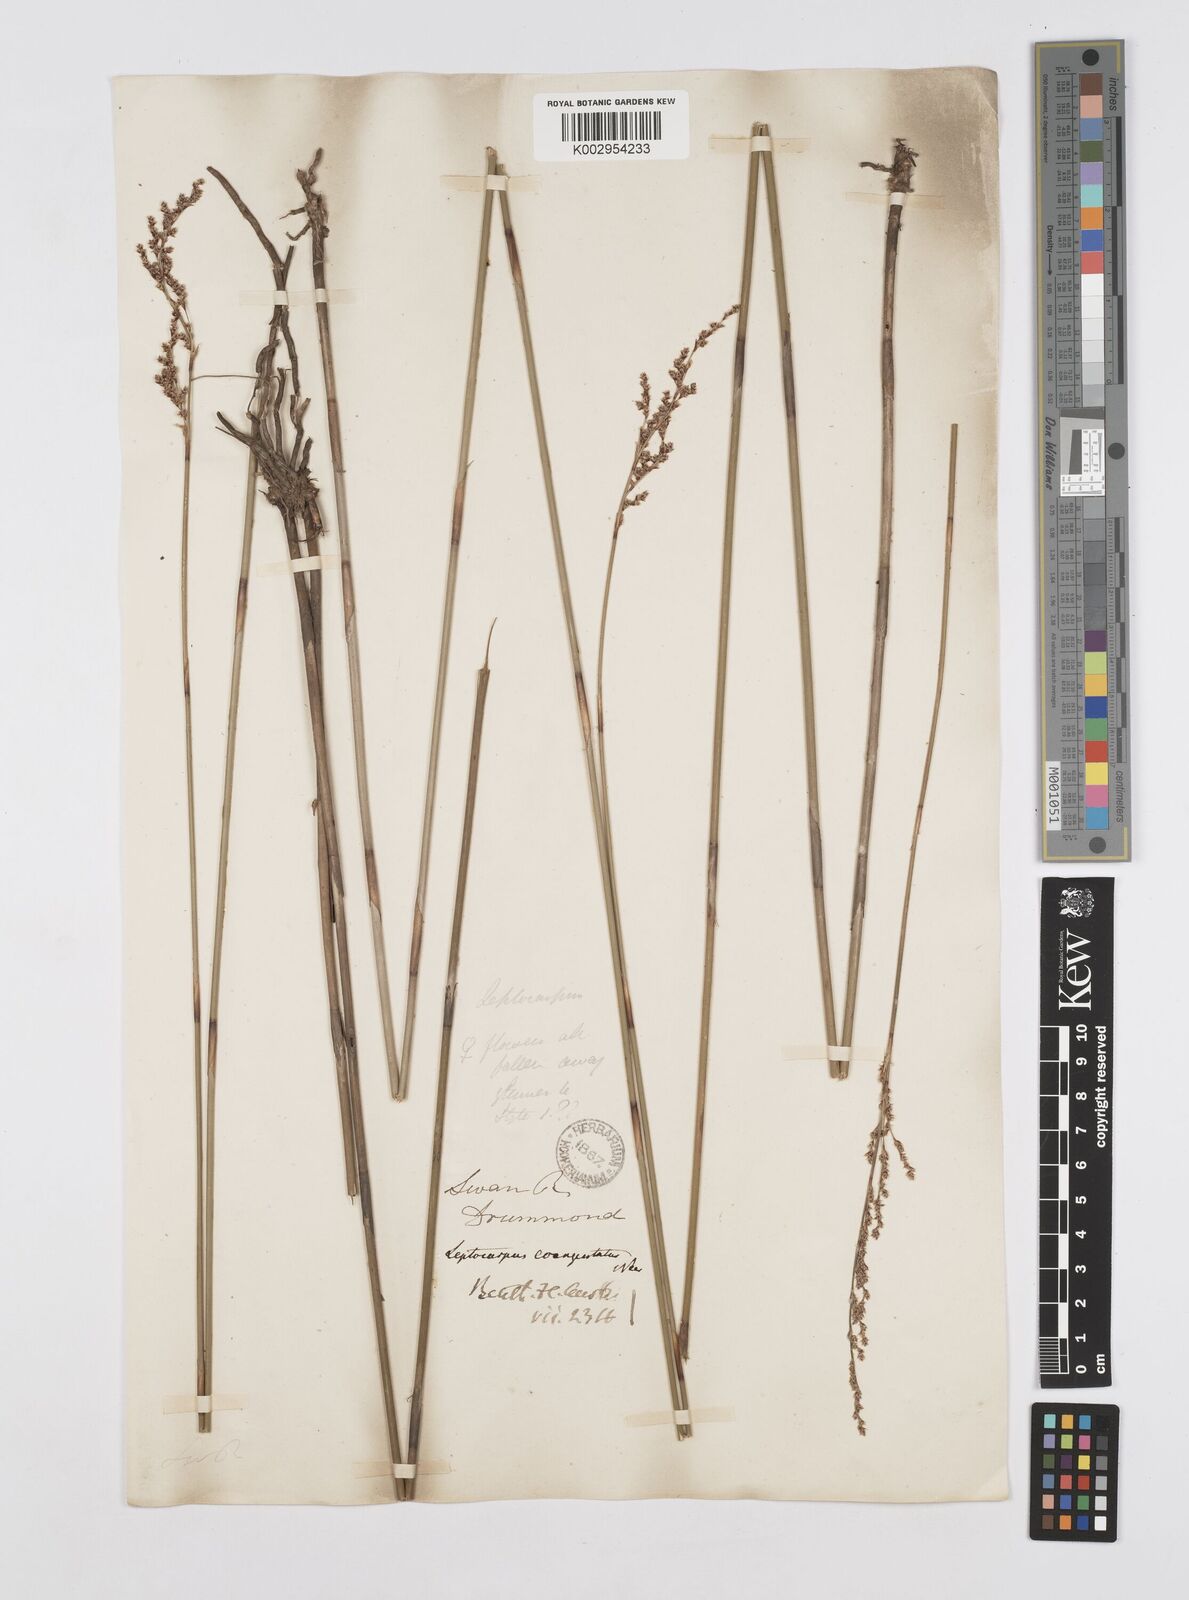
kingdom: Plantae
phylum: Tracheophyta
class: Liliopsida
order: Poales
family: Restionaceae
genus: Leptocarpus
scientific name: Leptocarpus coangustatus
